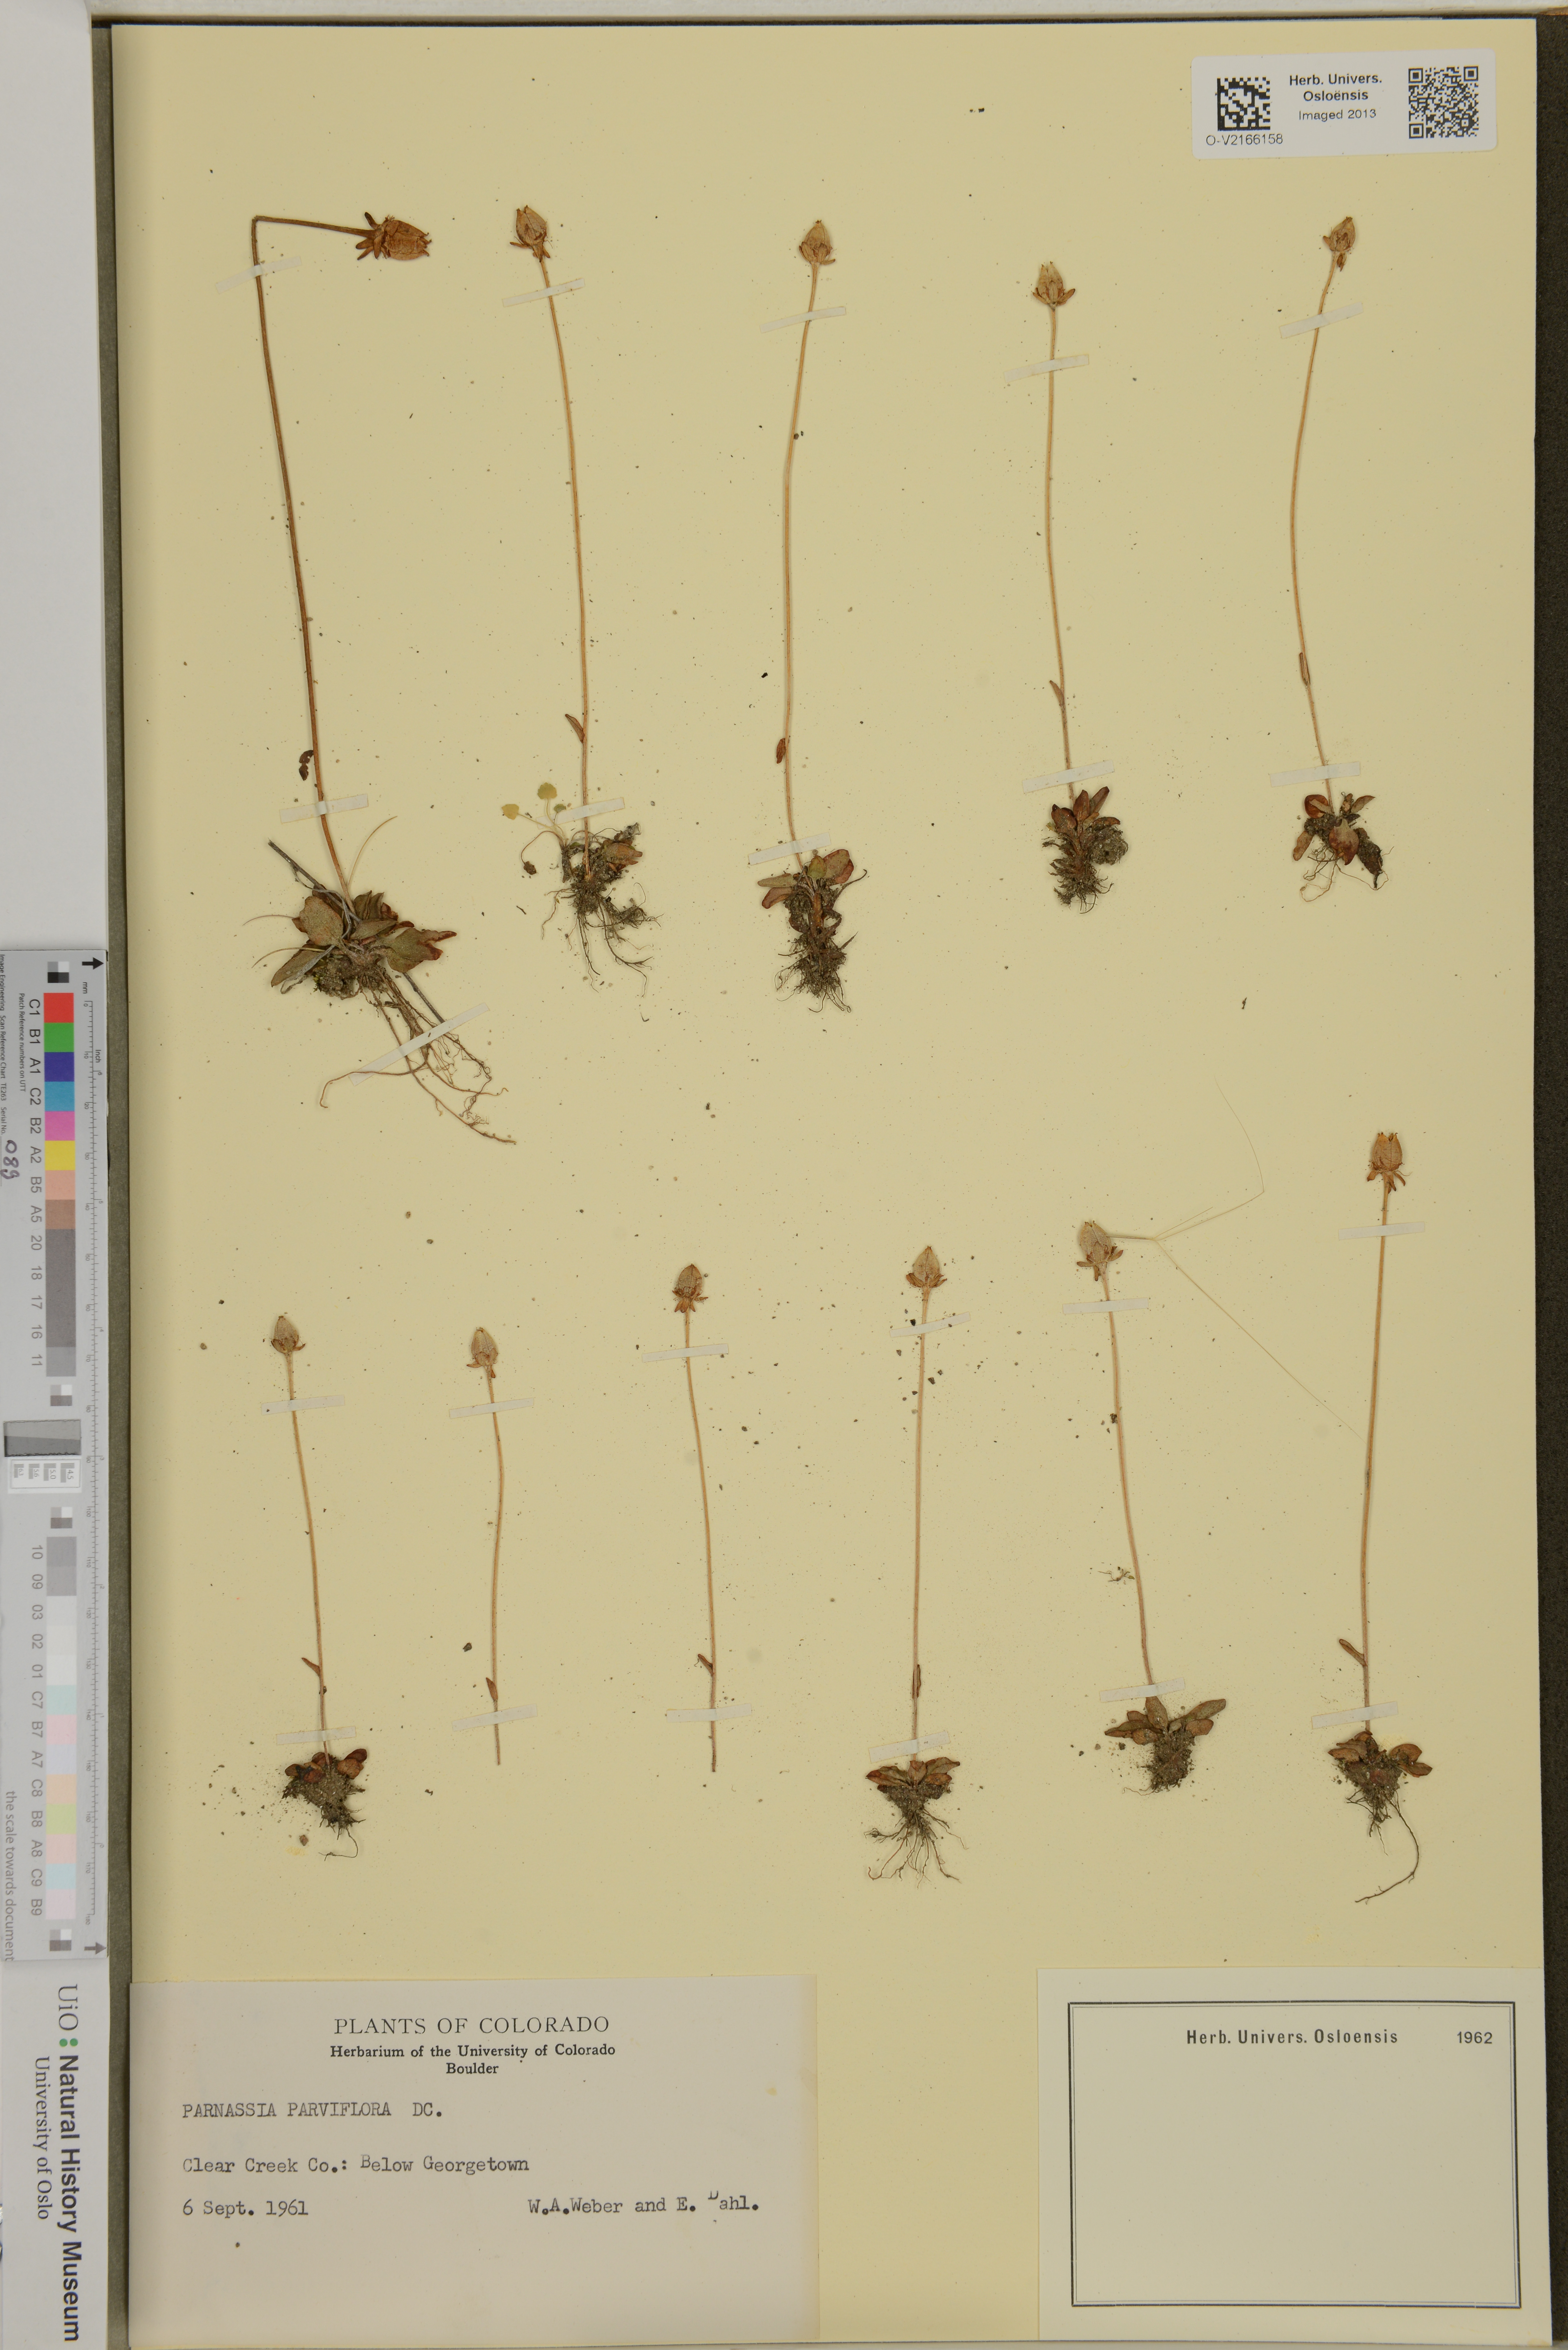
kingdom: Plantae
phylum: Tracheophyta
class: Magnoliopsida
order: Celastrales
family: Parnassiaceae
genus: Parnassia
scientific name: Parnassia parviflora
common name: Small-flowered grass-of-parnassus
